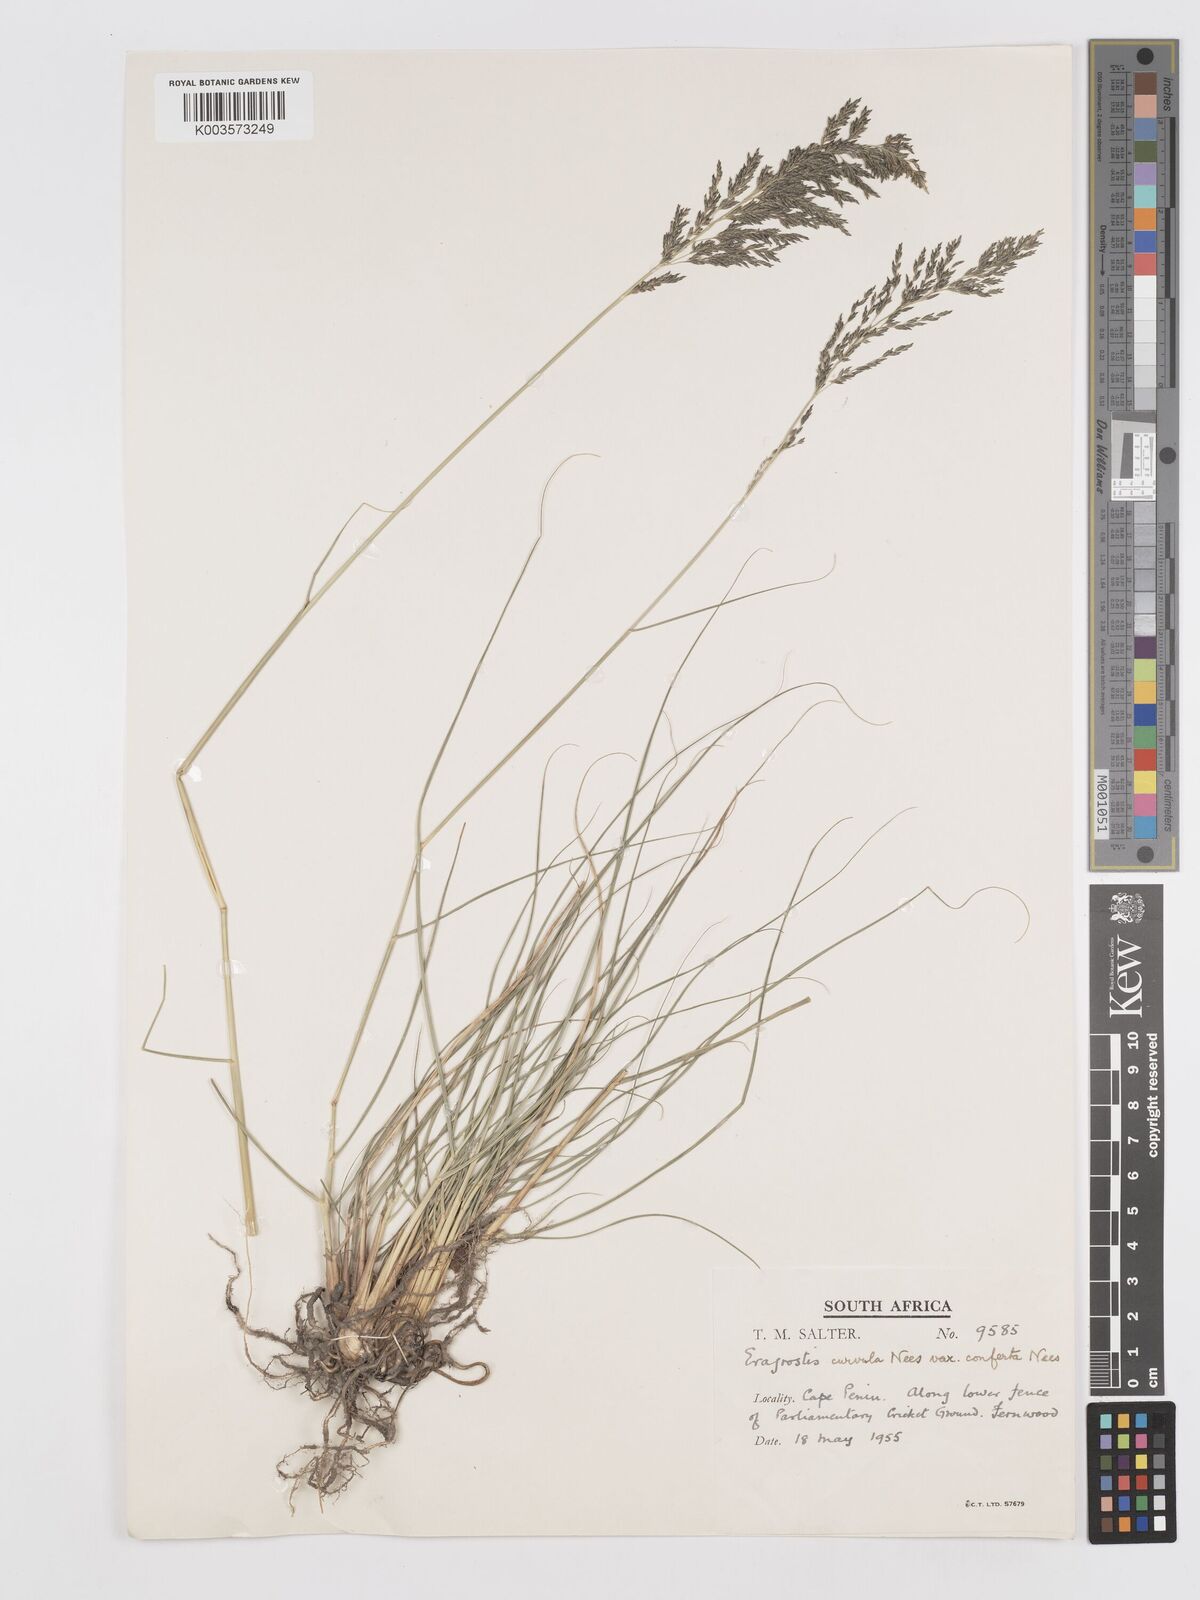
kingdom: Plantae
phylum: Tracheophyta
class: Liliopsida
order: Poales
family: Poaceae
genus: Eragrostis
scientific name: Eragrostis curvula
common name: African love-grass
